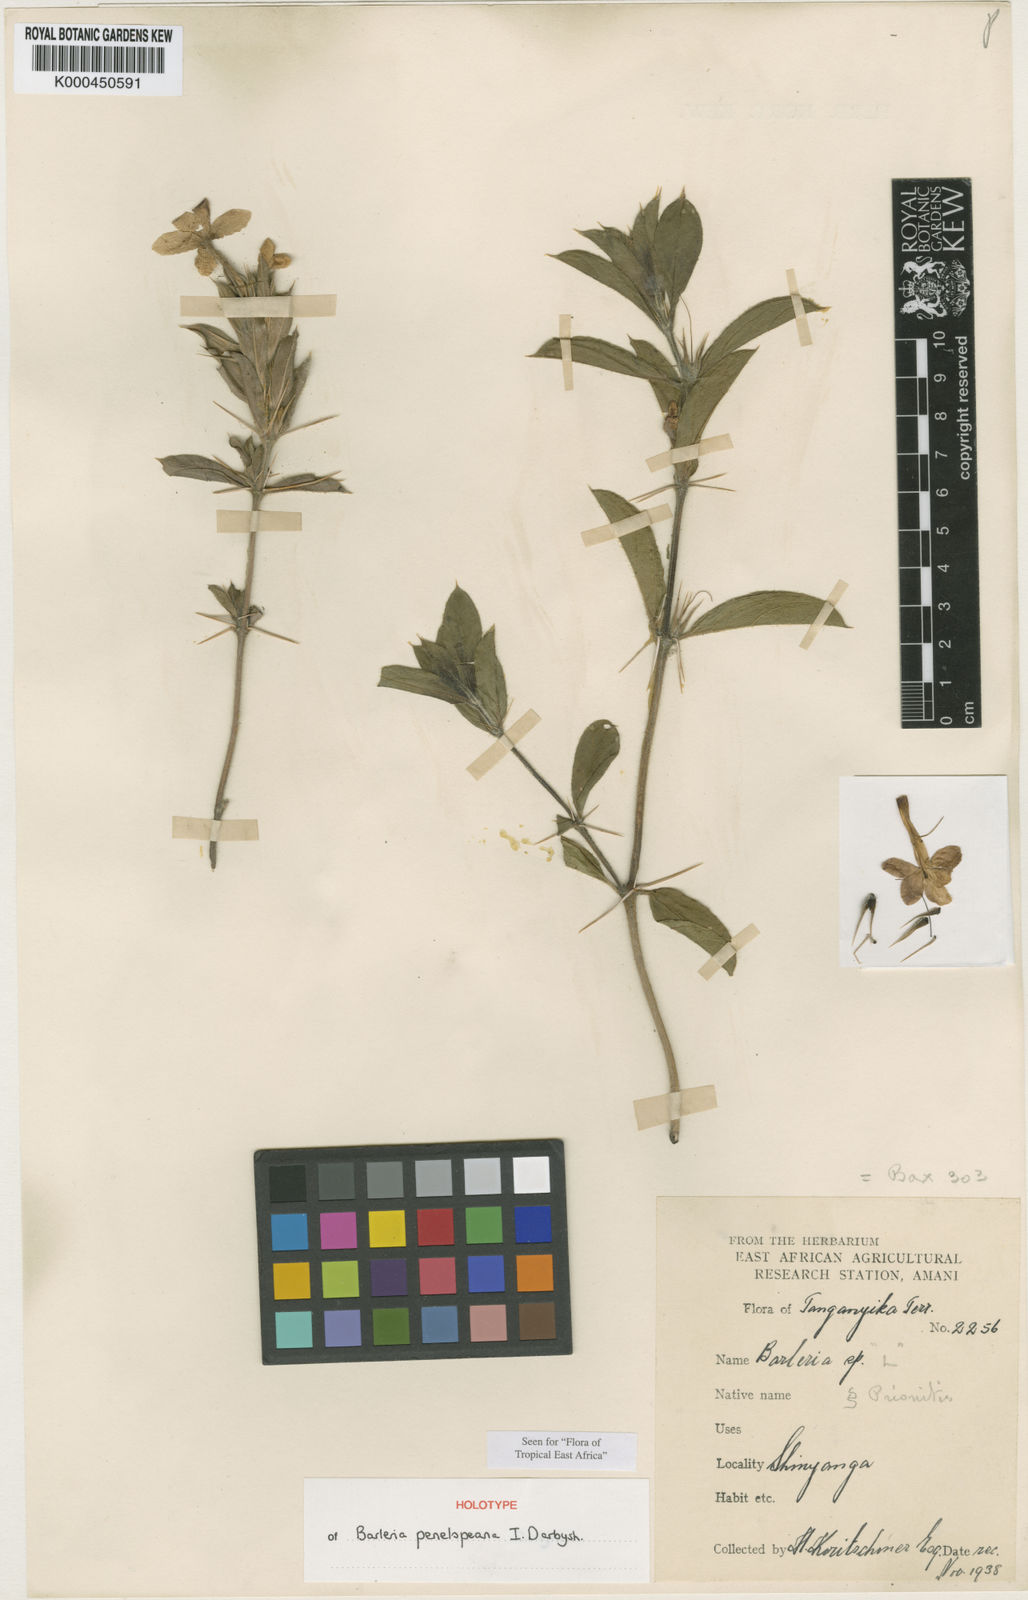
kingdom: Plantae
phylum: Tracheophyta
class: Magnoliopsida
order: Lamiales
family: Acanthaceae
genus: Barleria
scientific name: Barleria penelopeana
